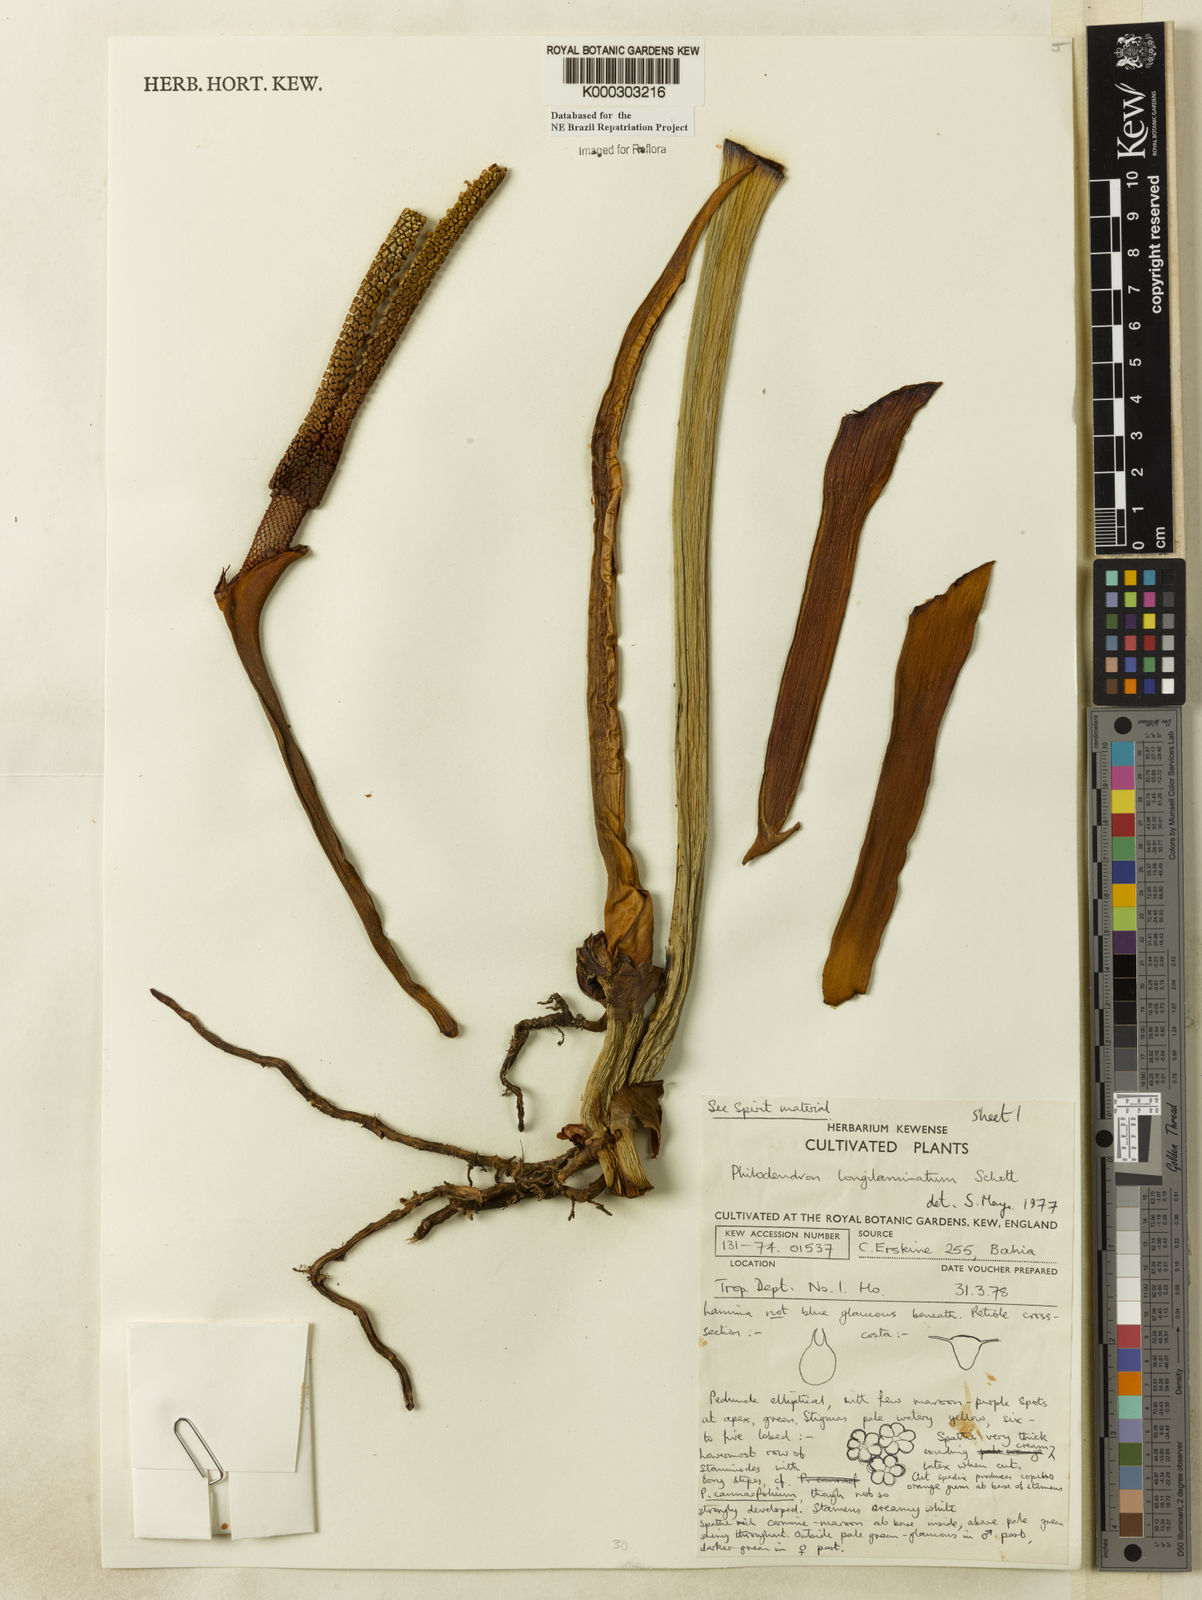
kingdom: Plantae
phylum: Tracheophyta
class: Liliopsida
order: Alismatales
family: Araceae
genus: Philodendron
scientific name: Philodendron longilaminatum
